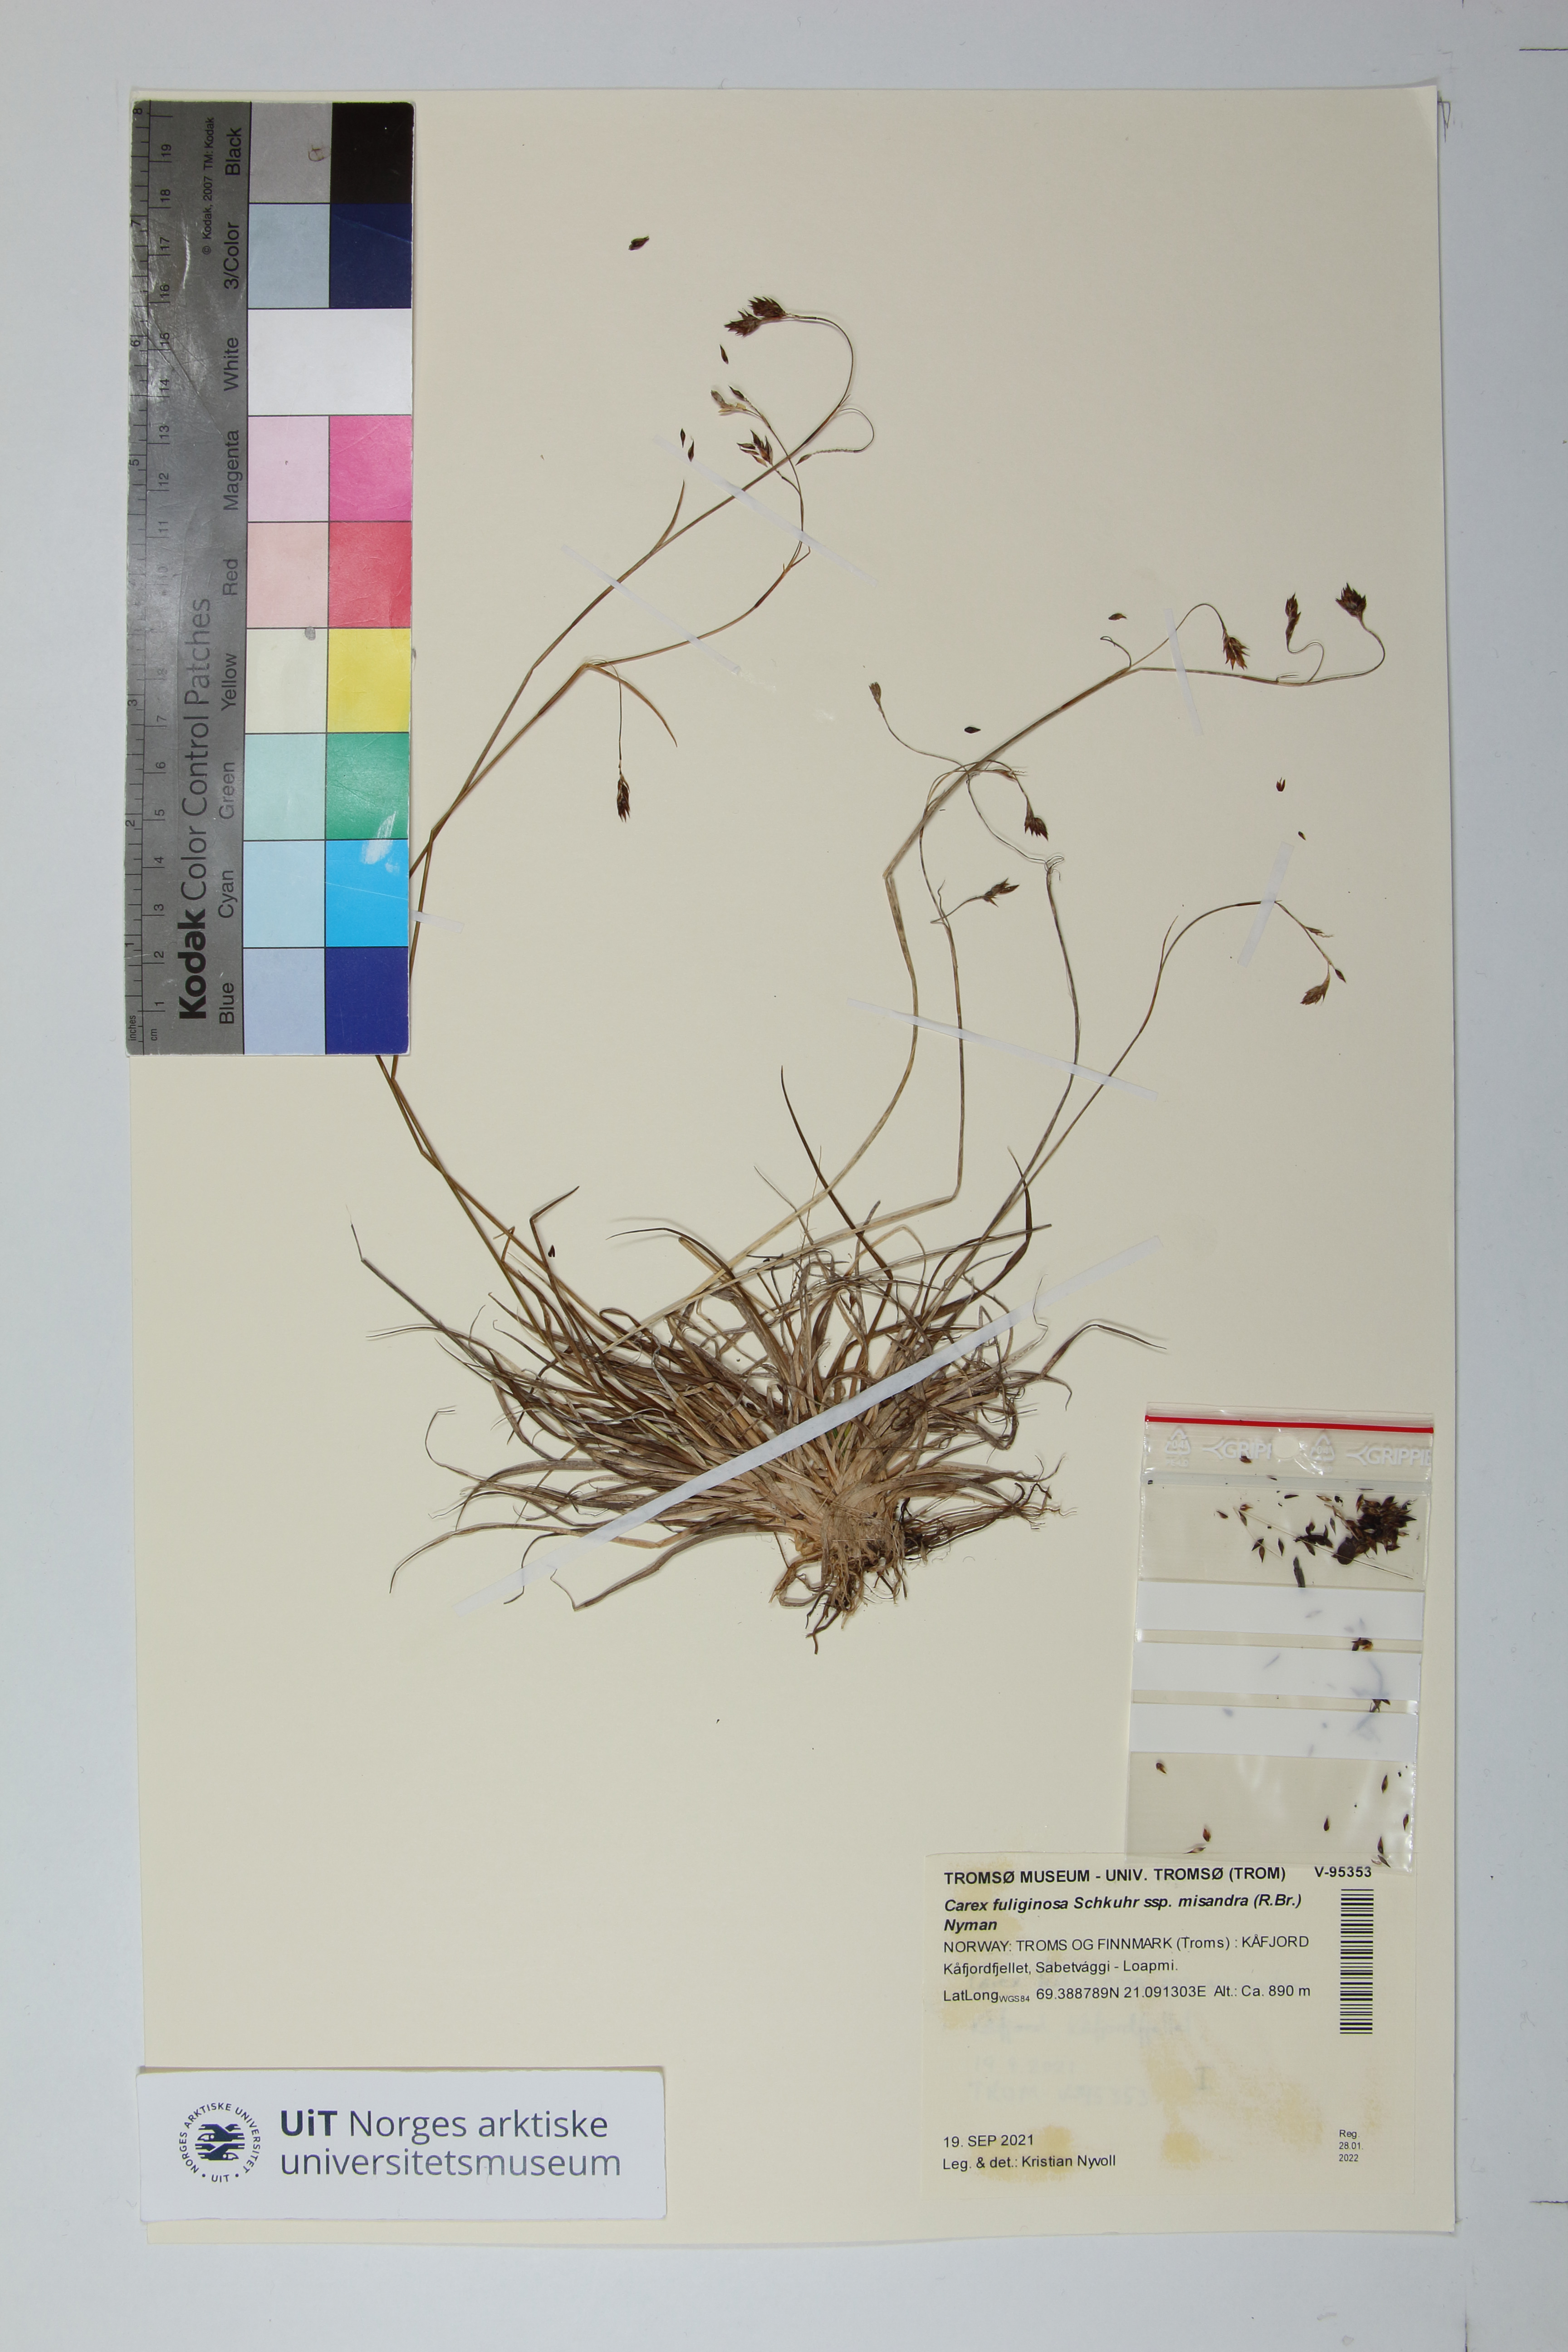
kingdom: Plantae
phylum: Tracheophyta
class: Liliopsida
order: Poales
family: Cyperaceae
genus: Carex
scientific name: Carex fuliginosa
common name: Few-flowered sedge
